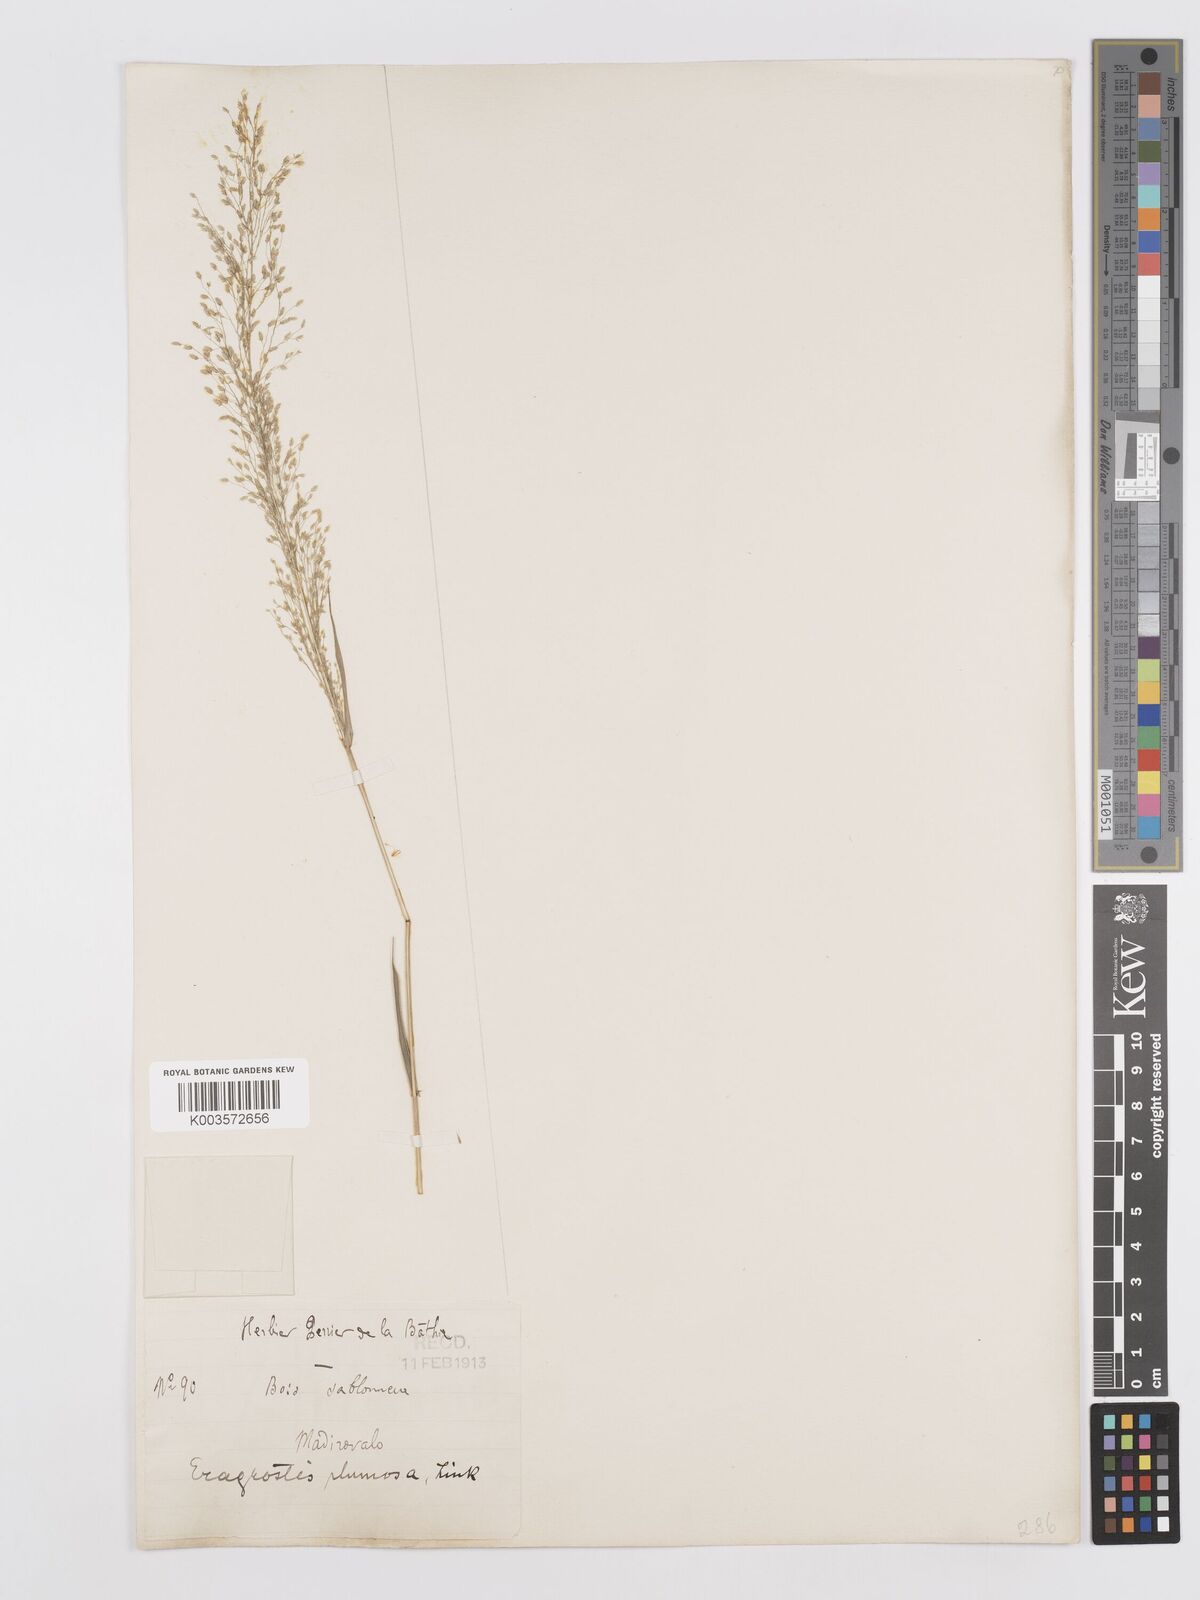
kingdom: Plantae
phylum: Tracheophyta
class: Liliopsida
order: Poales
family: Poaceae
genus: Eragrostis
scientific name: Eragrostis tenella
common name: Japanese lovegrass
